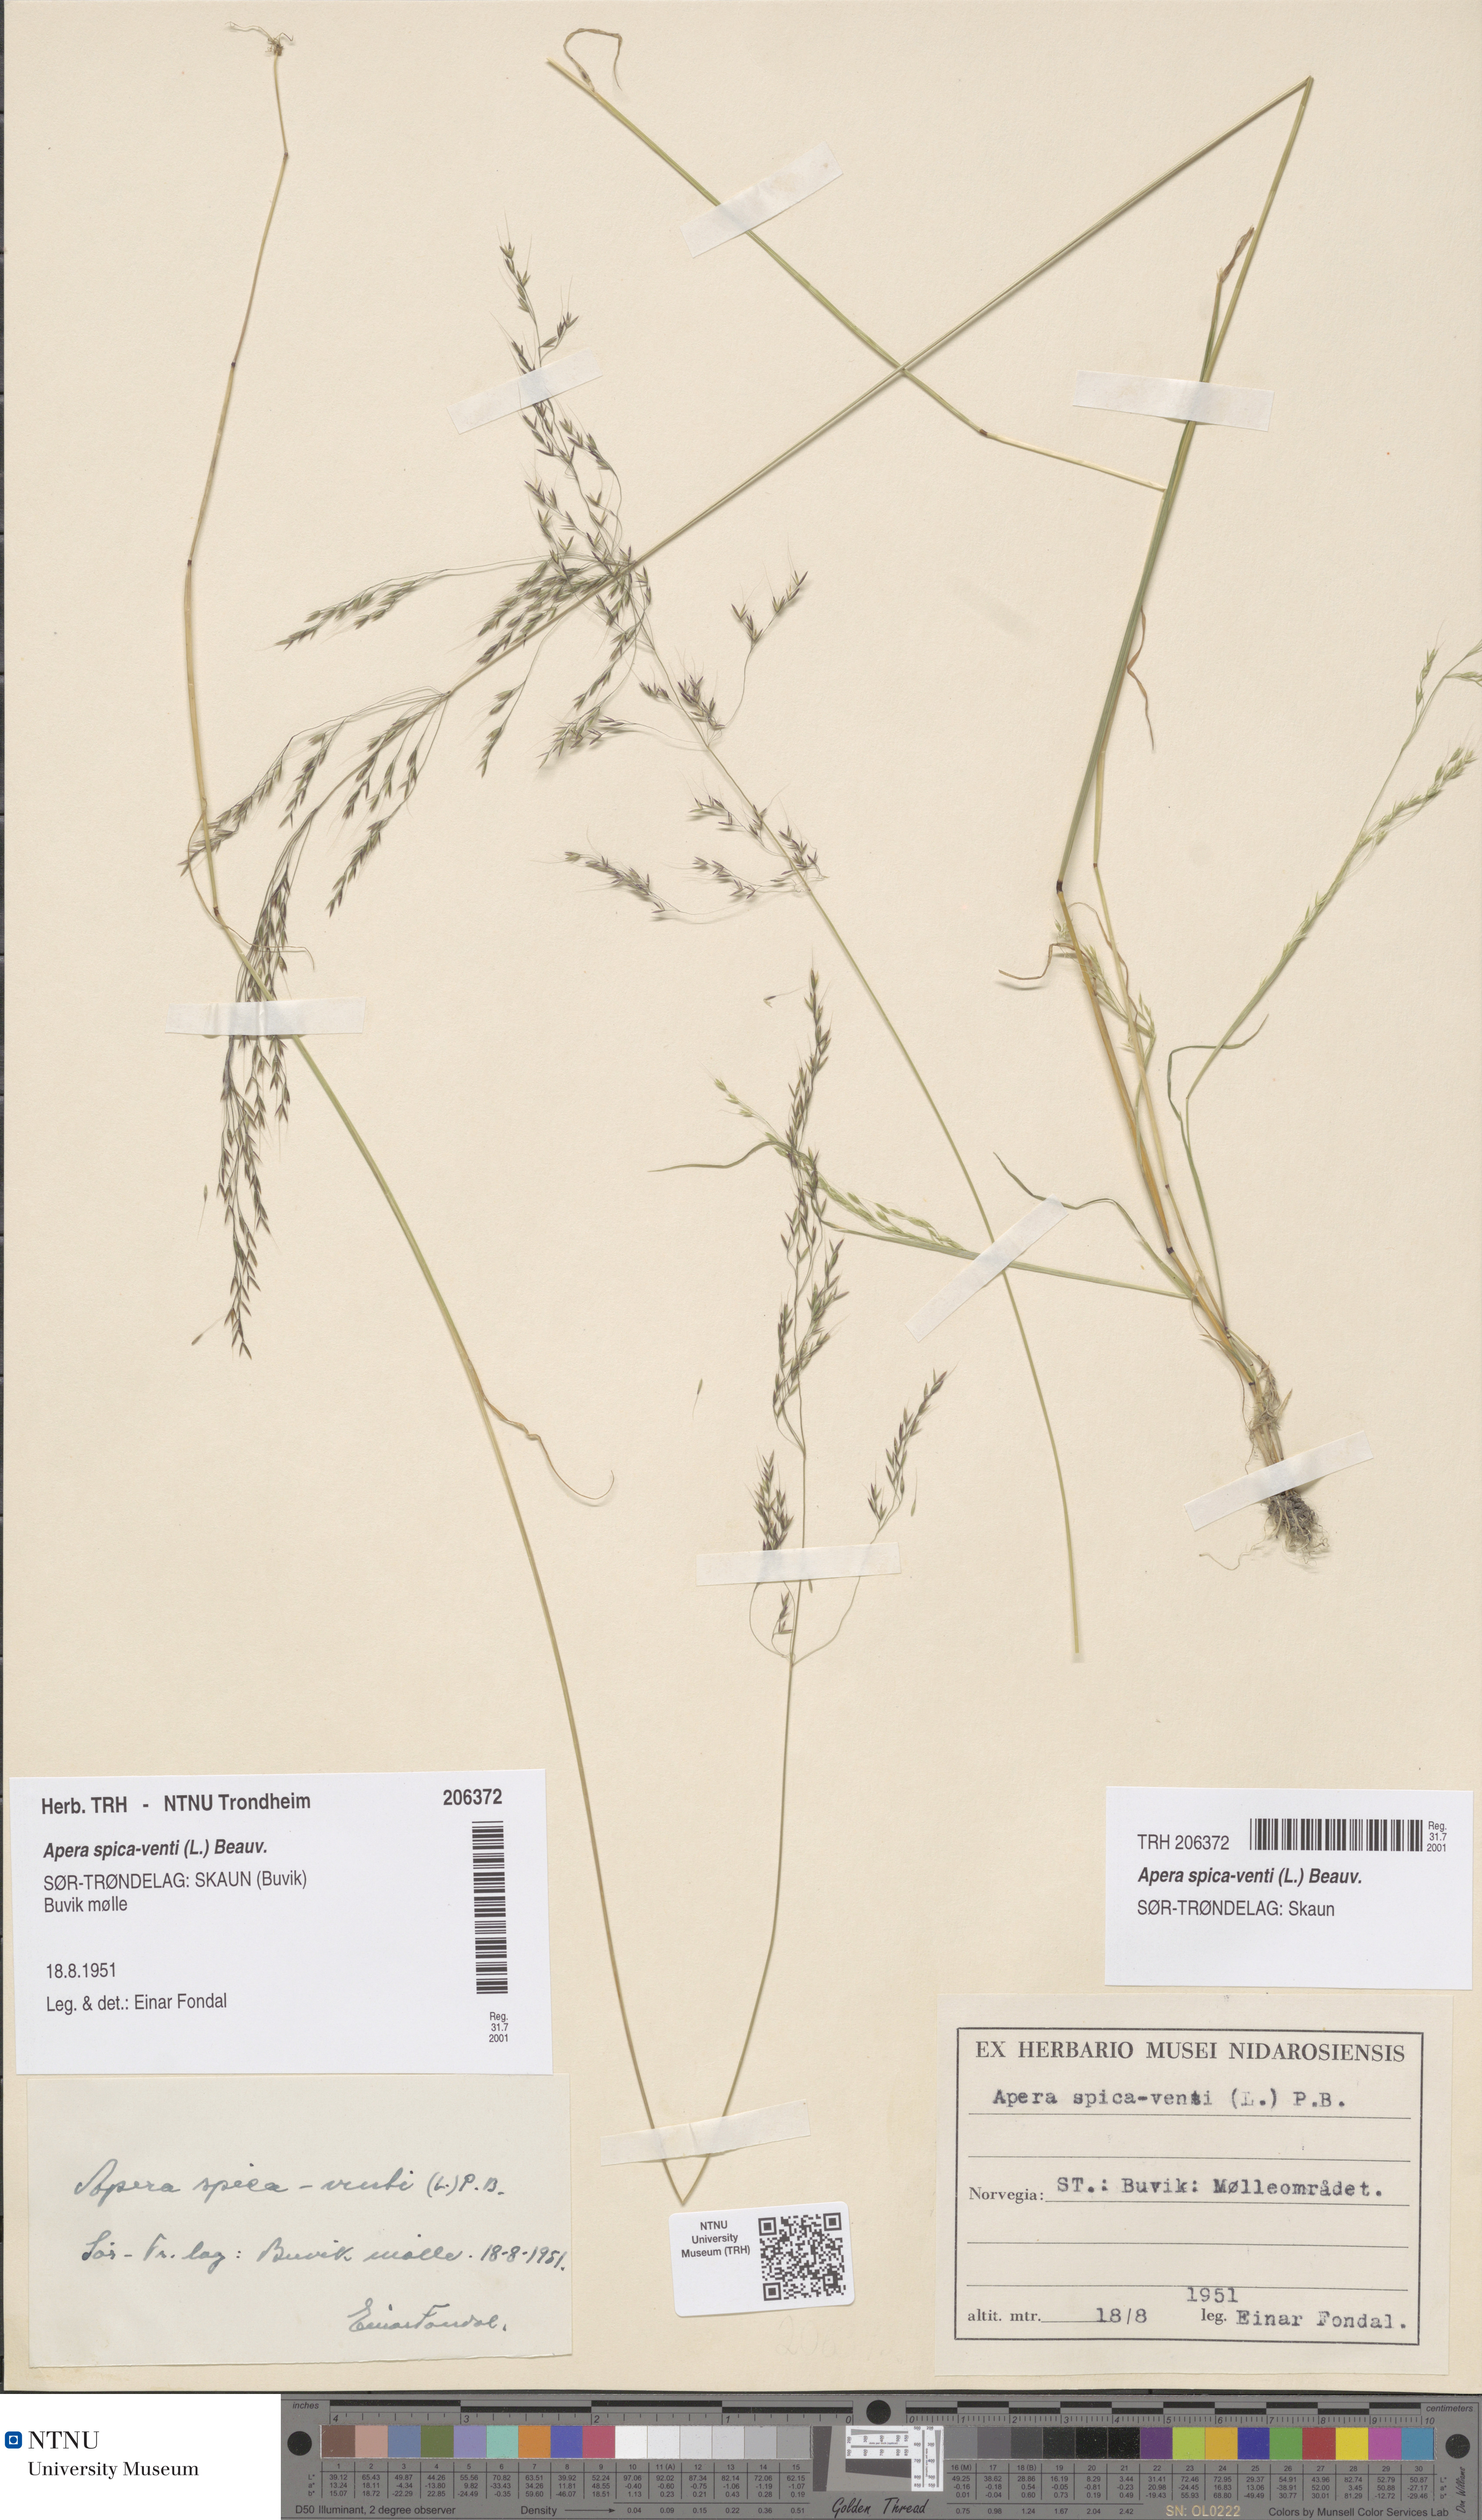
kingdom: Plantae
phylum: Tracheophyta
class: Liliopsida
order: Poales
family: Poaceae
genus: Apera
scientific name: Apera spica-venti
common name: Loose silky-bent
